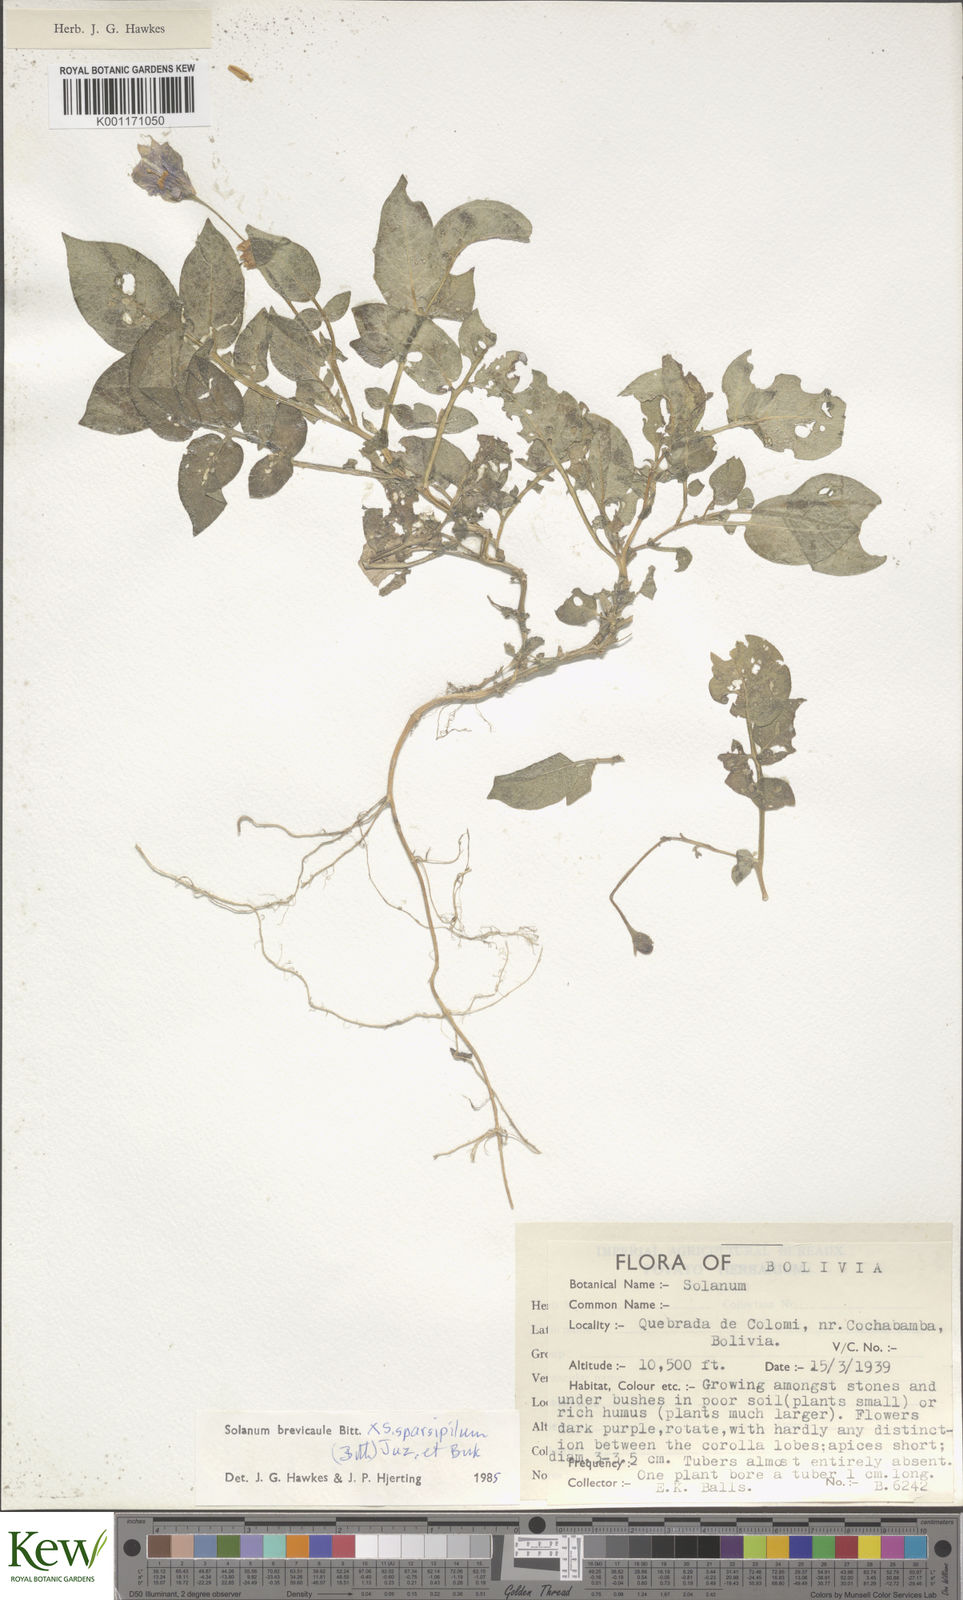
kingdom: Plantae
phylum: Tracheophyta
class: Magnoliopsida
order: Solanales
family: Solanaceae
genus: Solanum
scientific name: Solanum brevicaule
